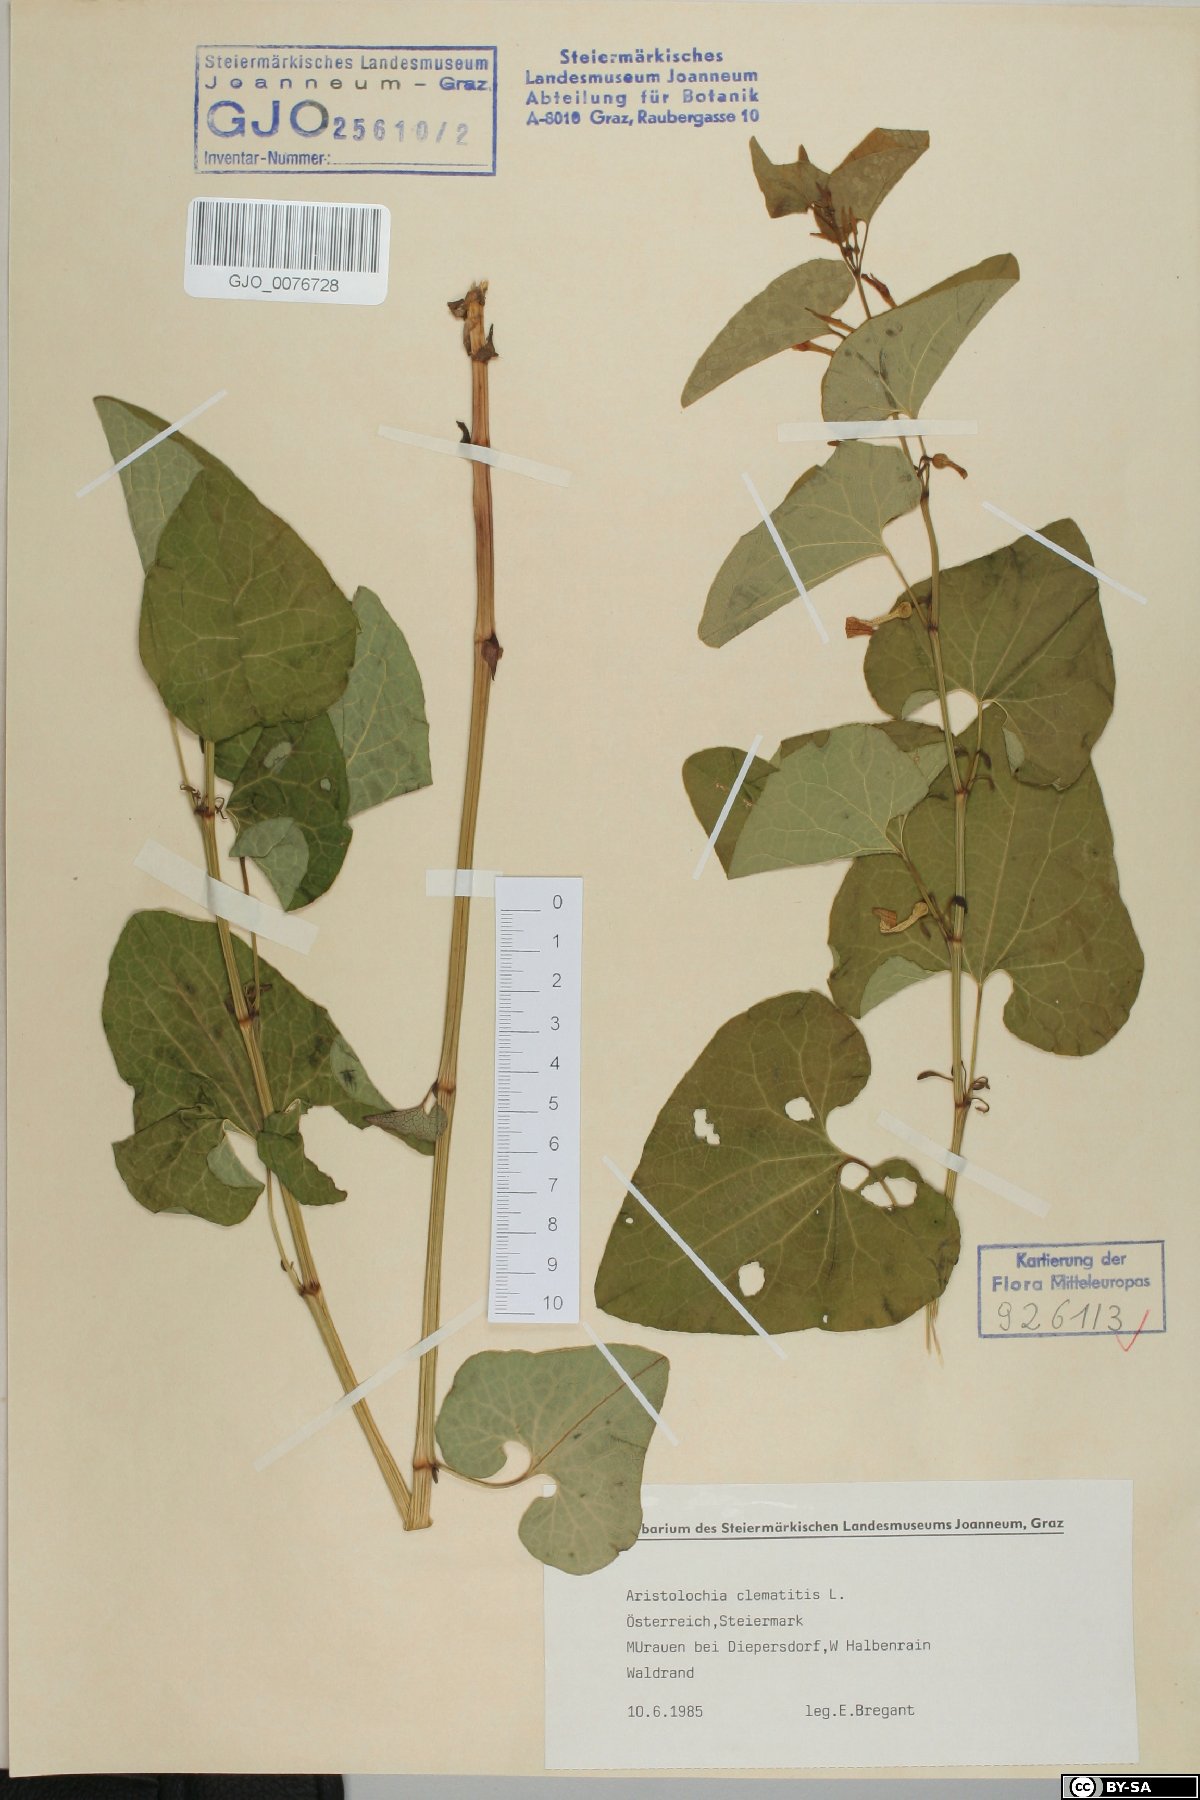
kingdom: Plantae
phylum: Tracheophyta
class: Magnoliopsida
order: Piperales
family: Aristolochiaceae
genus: Aristolochia
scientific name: Aristolochia clematitis
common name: Birthwort
